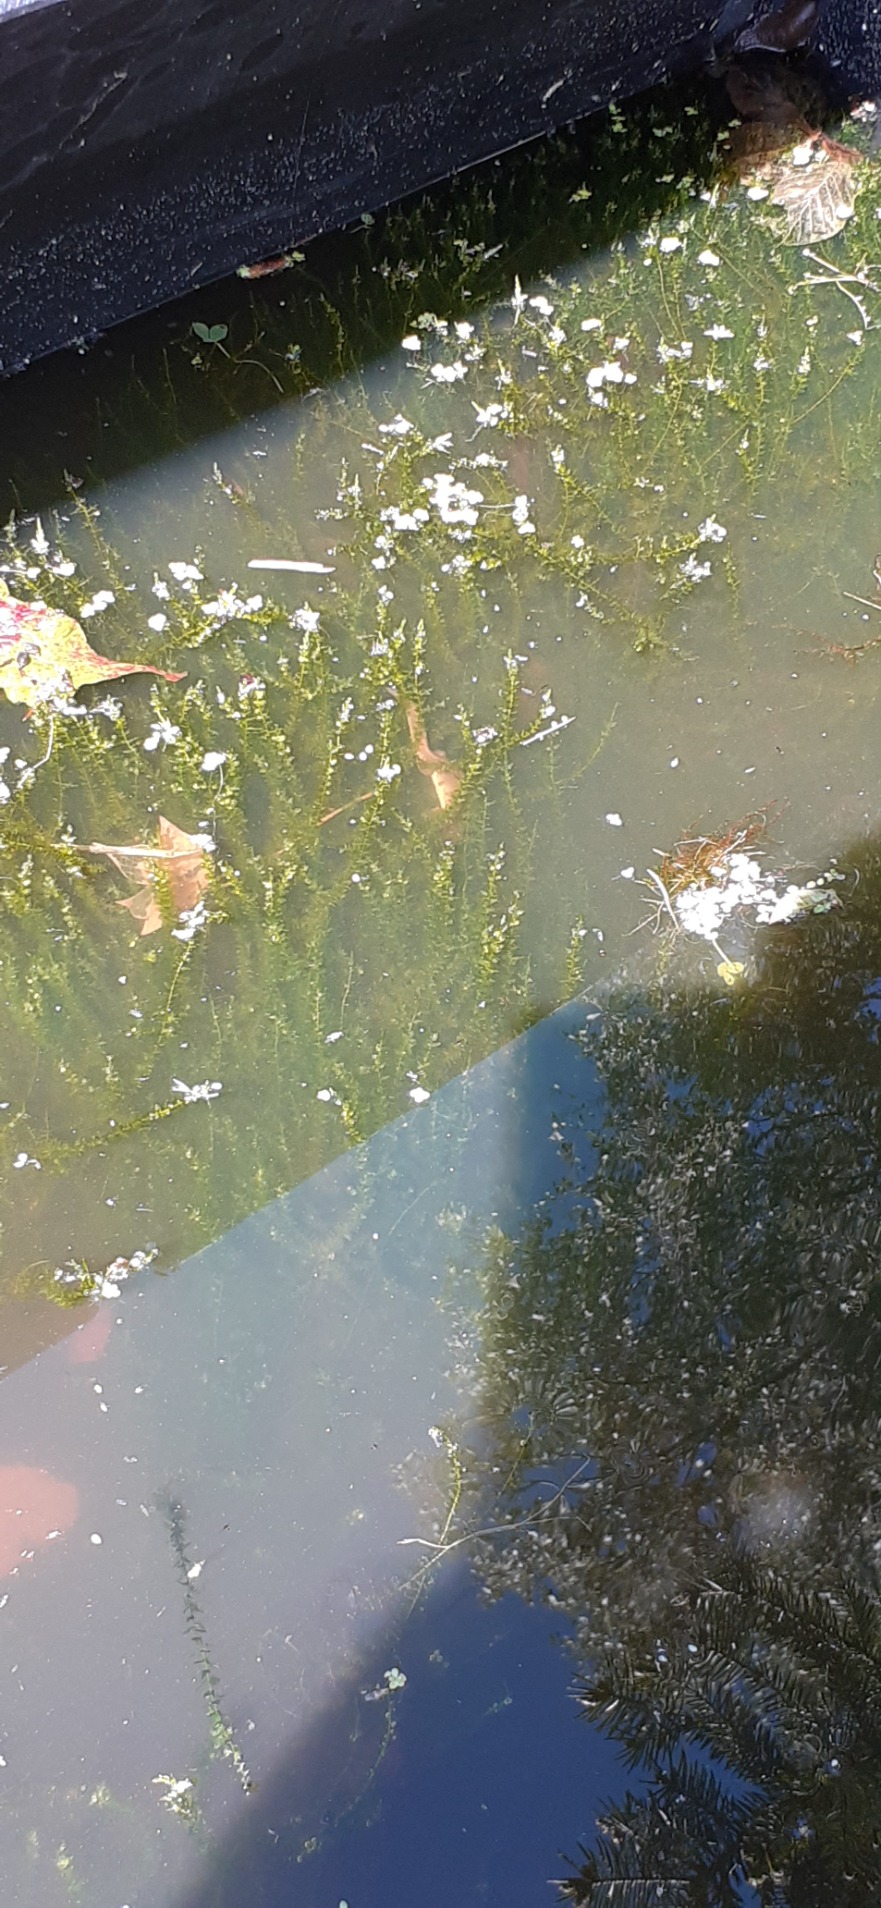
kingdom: Animalia
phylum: Chordata
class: Amphibia
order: Caudata
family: Salamandridae
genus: Lissotriton
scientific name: Lissotriton vulgaris
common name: Lille vandsalamander
